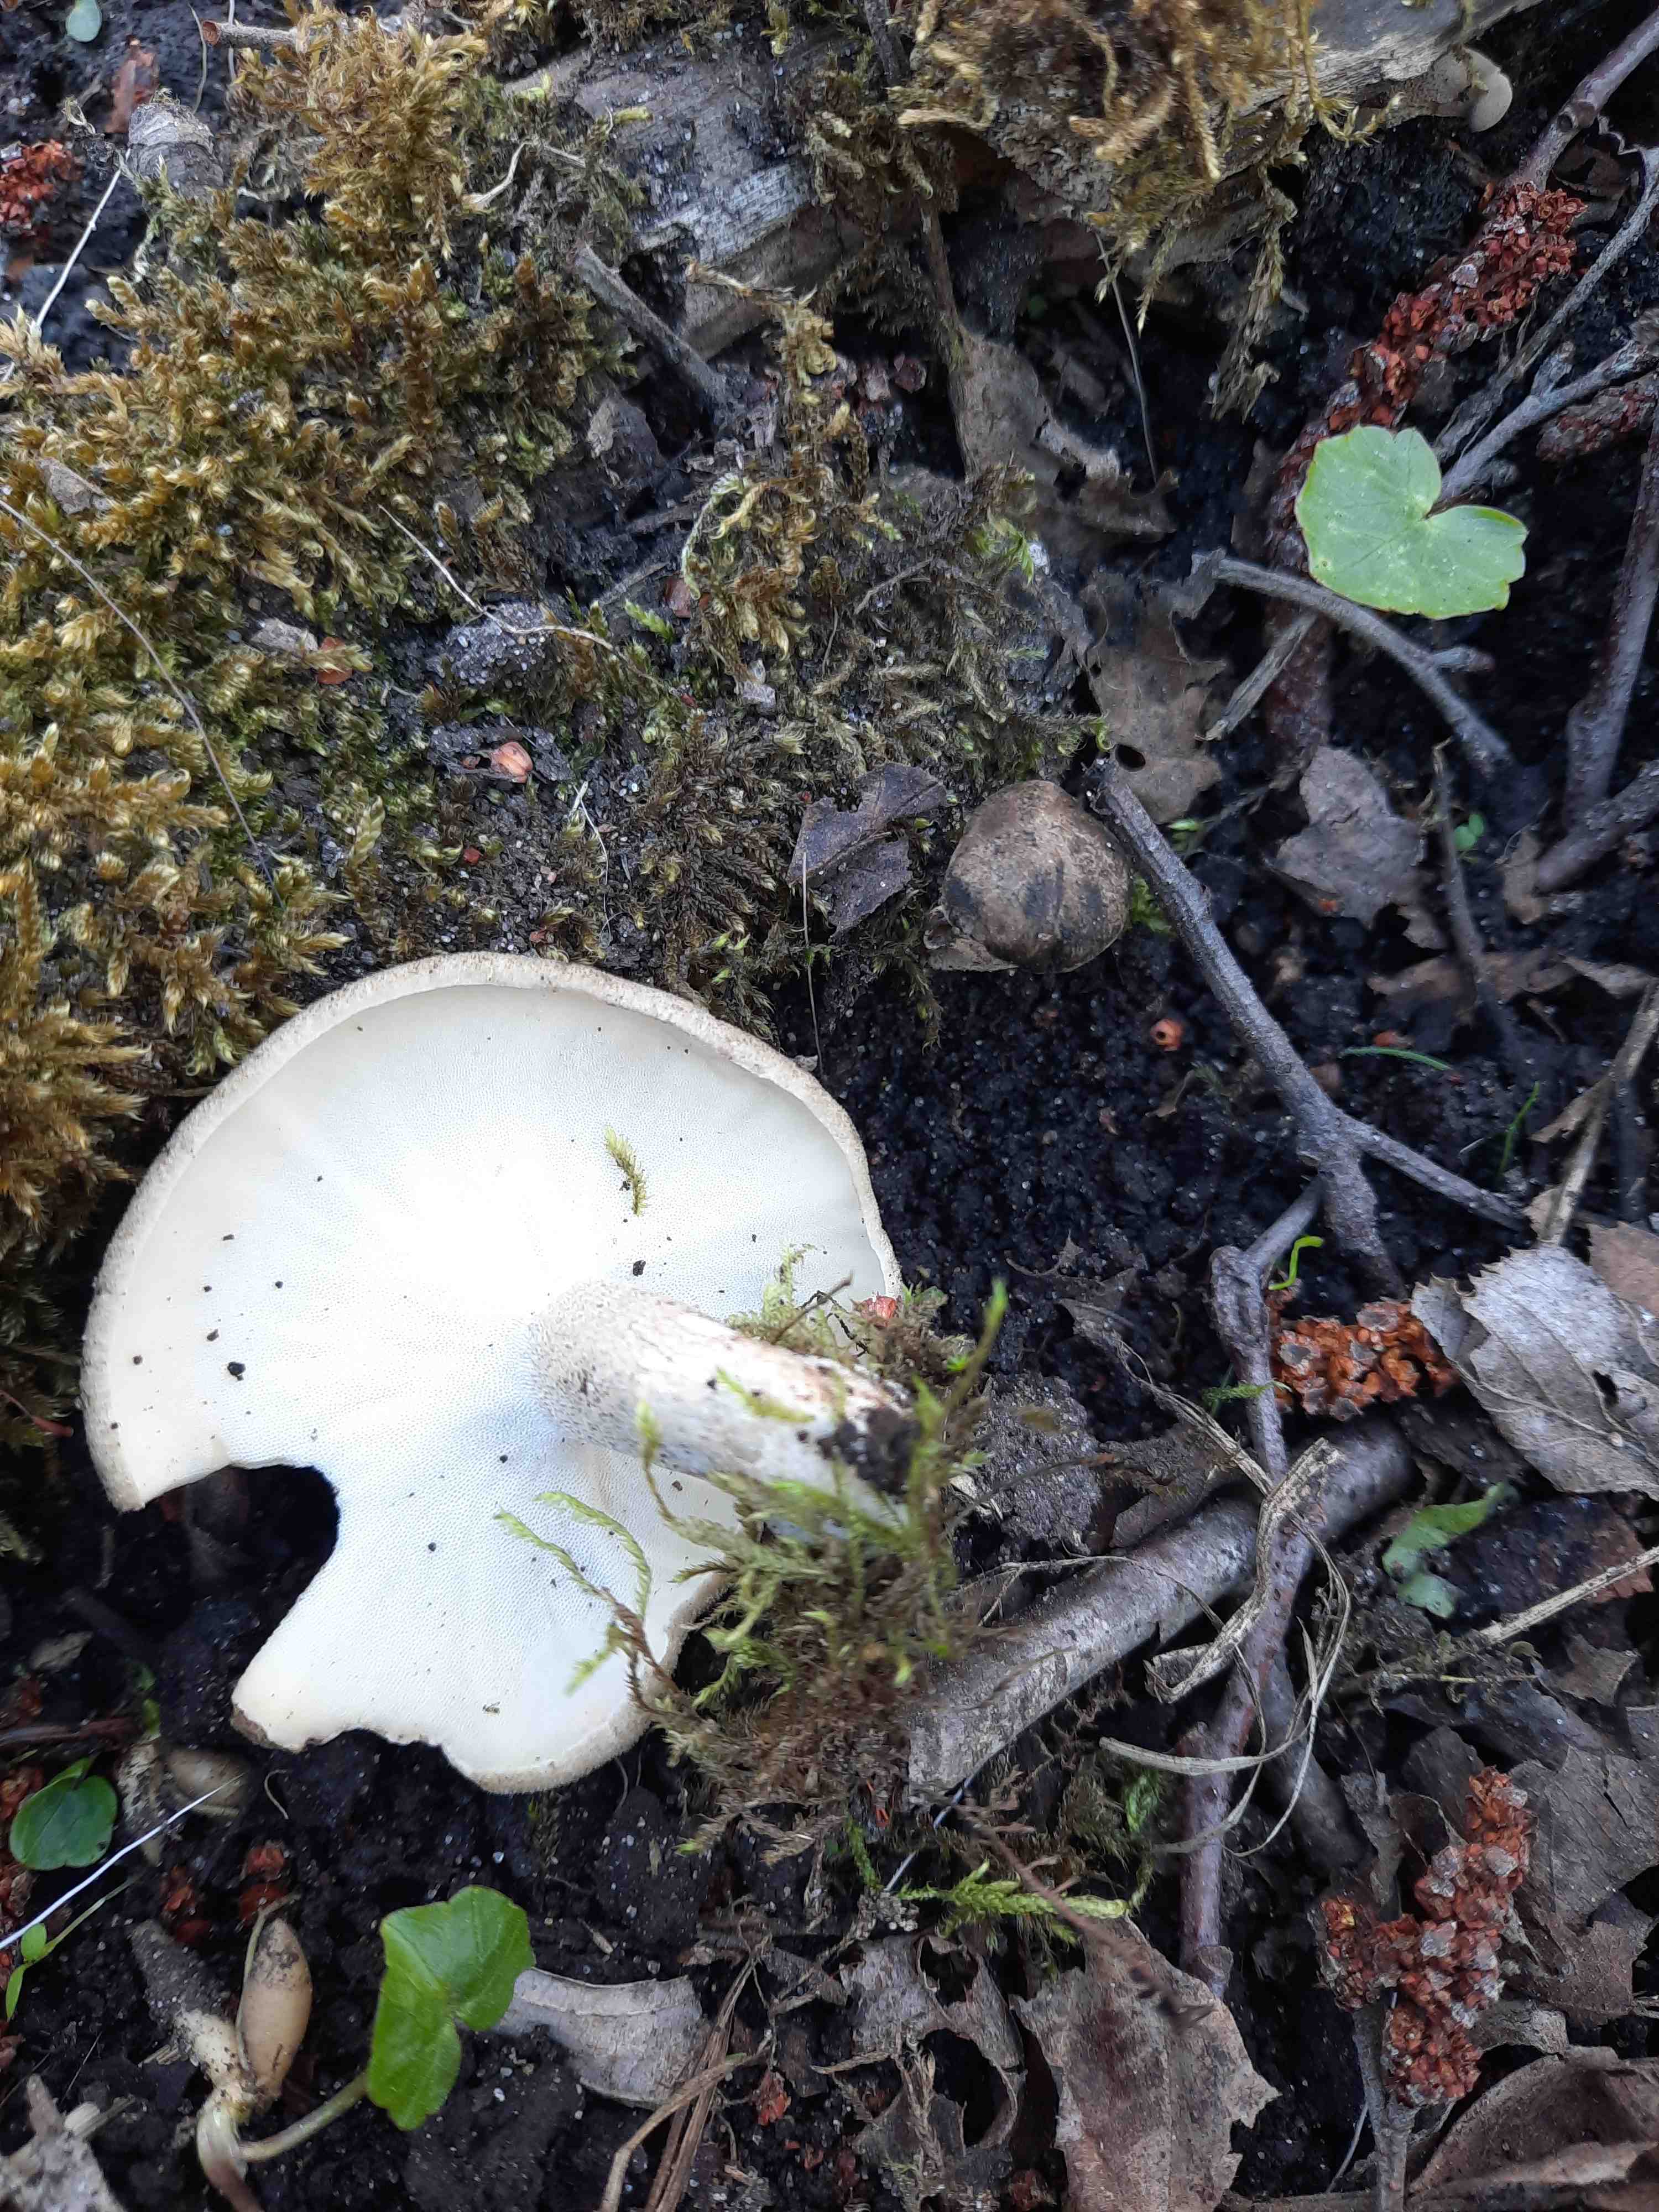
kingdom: Fungi
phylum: Basidiomycota
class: Agaricomycetes
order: Polyporales
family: Polyporaceae
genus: Lentinus
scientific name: Lentinus substrictus
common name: forårs-stilkporesvamp
